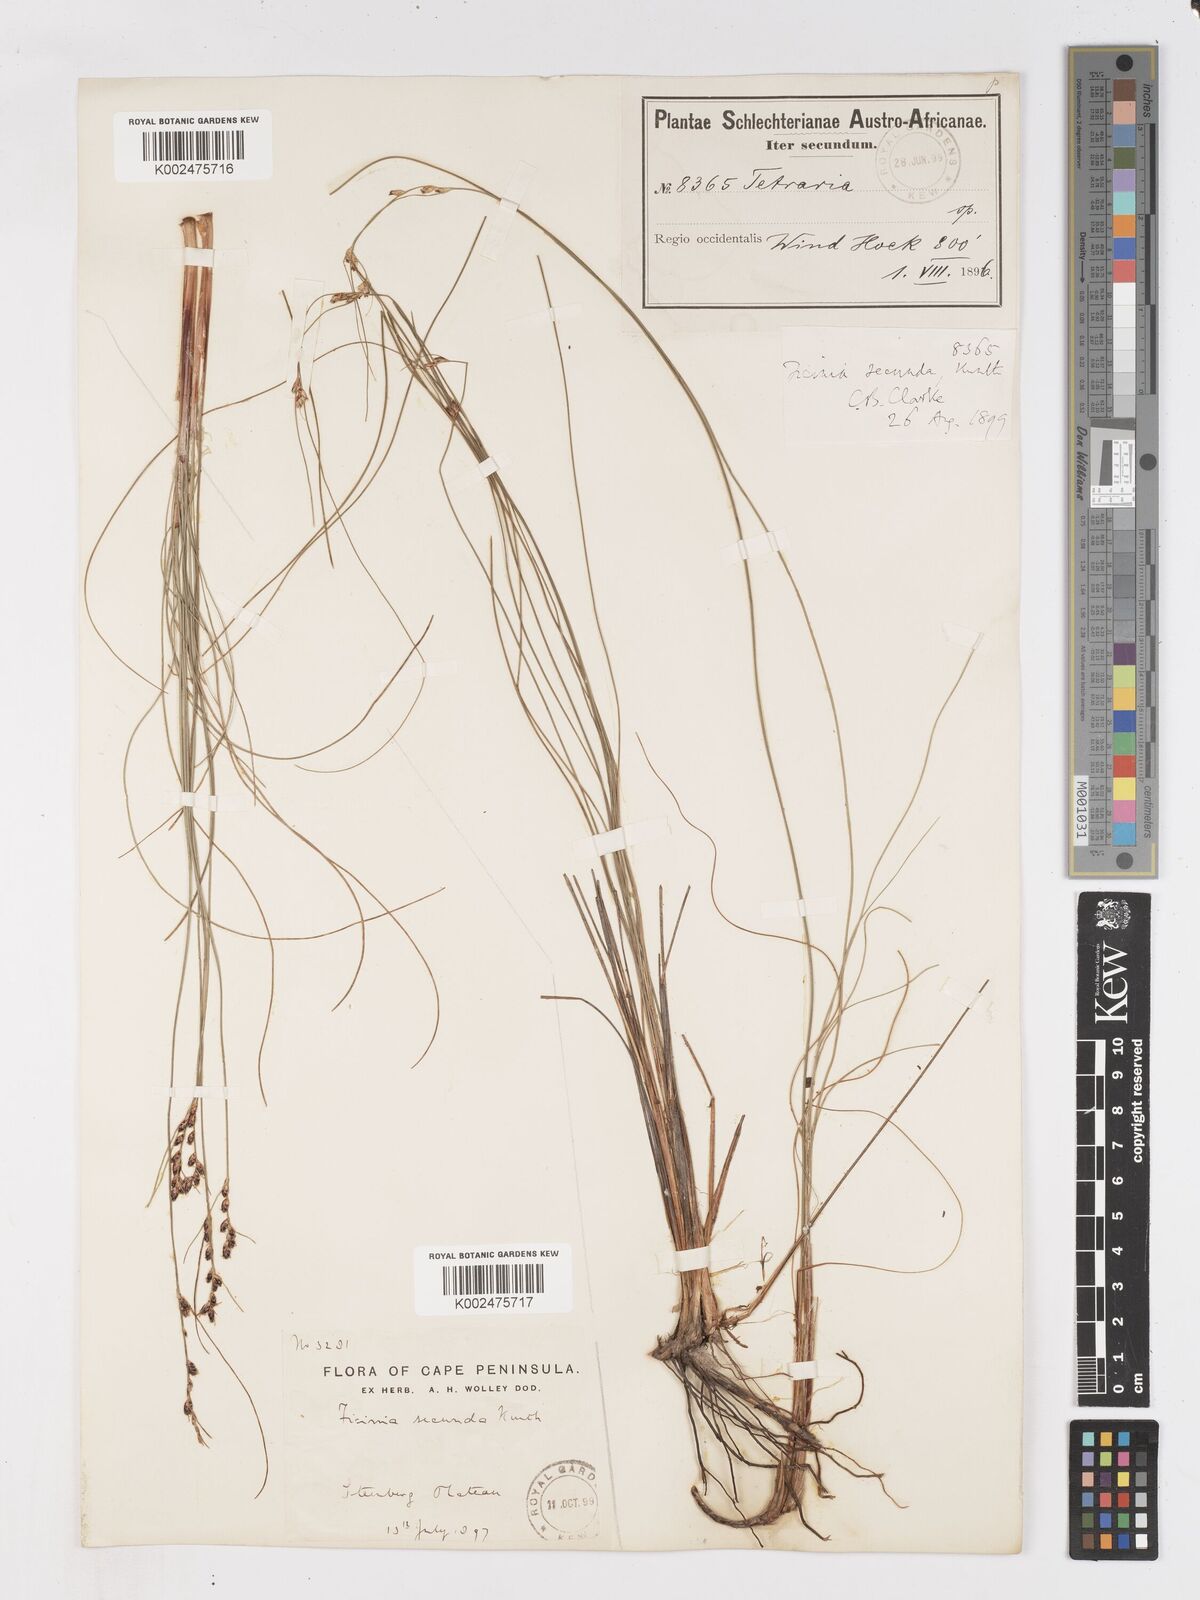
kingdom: Plantae
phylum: Tracheophyta
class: Liliopsida
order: Poales
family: Cyperaceae
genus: Ficinia
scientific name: Ficinia secunda
